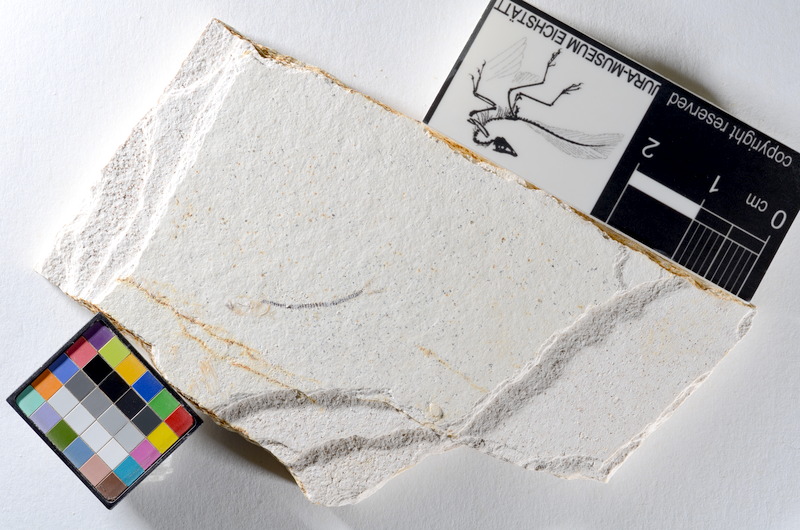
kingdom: Animalia
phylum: Chordata
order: Salmoniformes
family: Orthogonikleithridae
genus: Orthogonikleithrus
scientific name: Orthogonikleithrus hoelli
